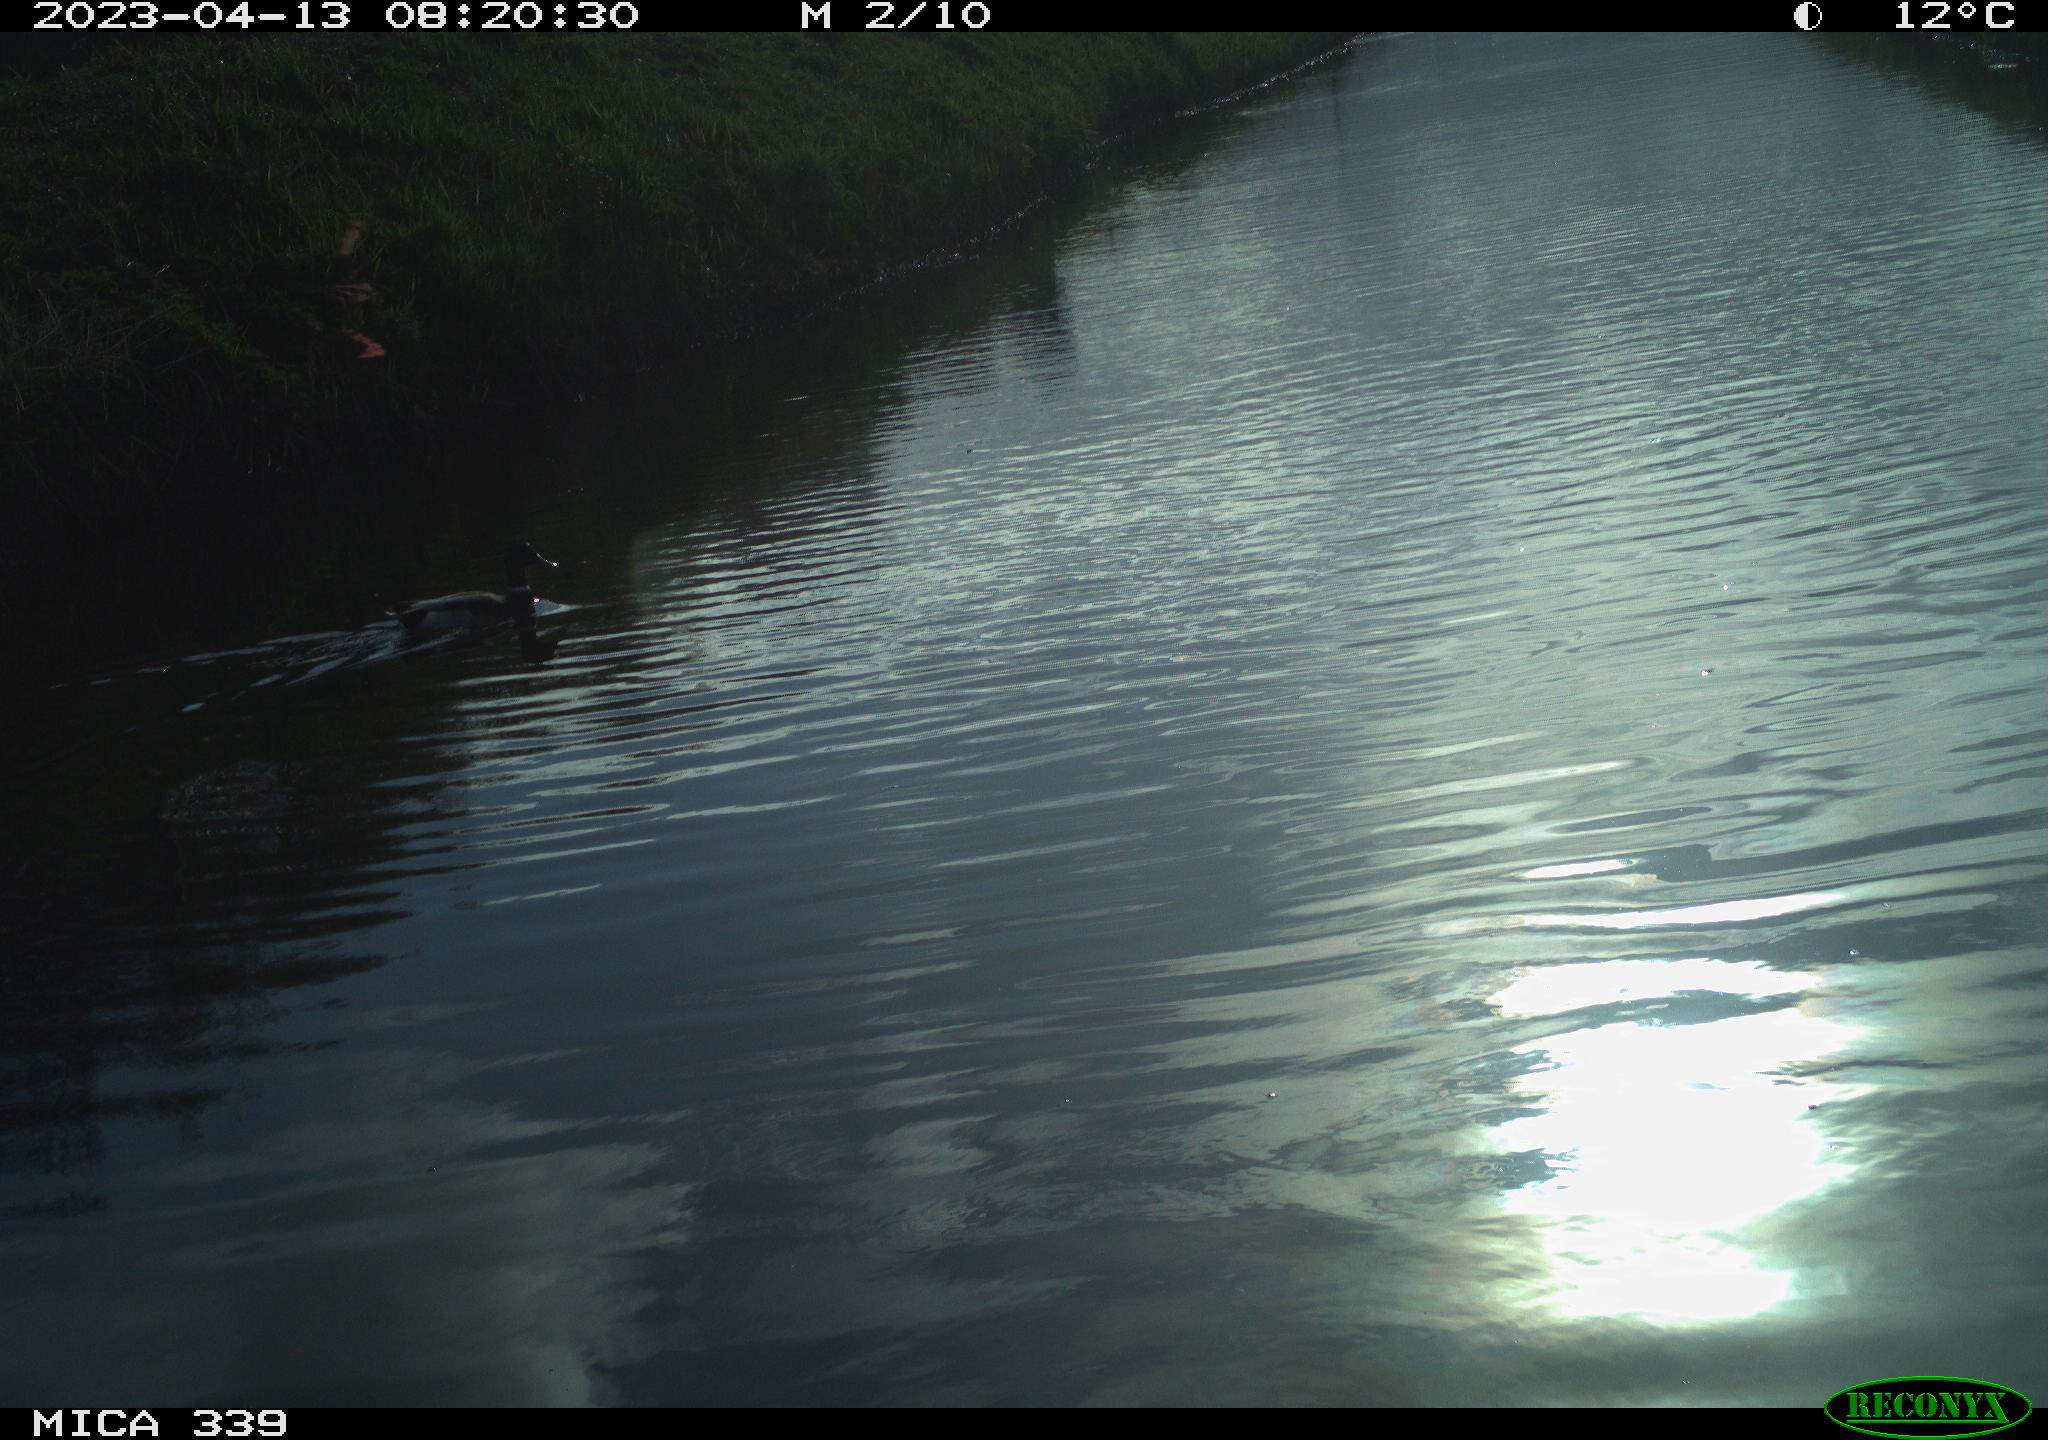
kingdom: Animalia
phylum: Chordata
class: Aves
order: Anseriformes
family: Anatidae
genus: Anas
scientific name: Anas
